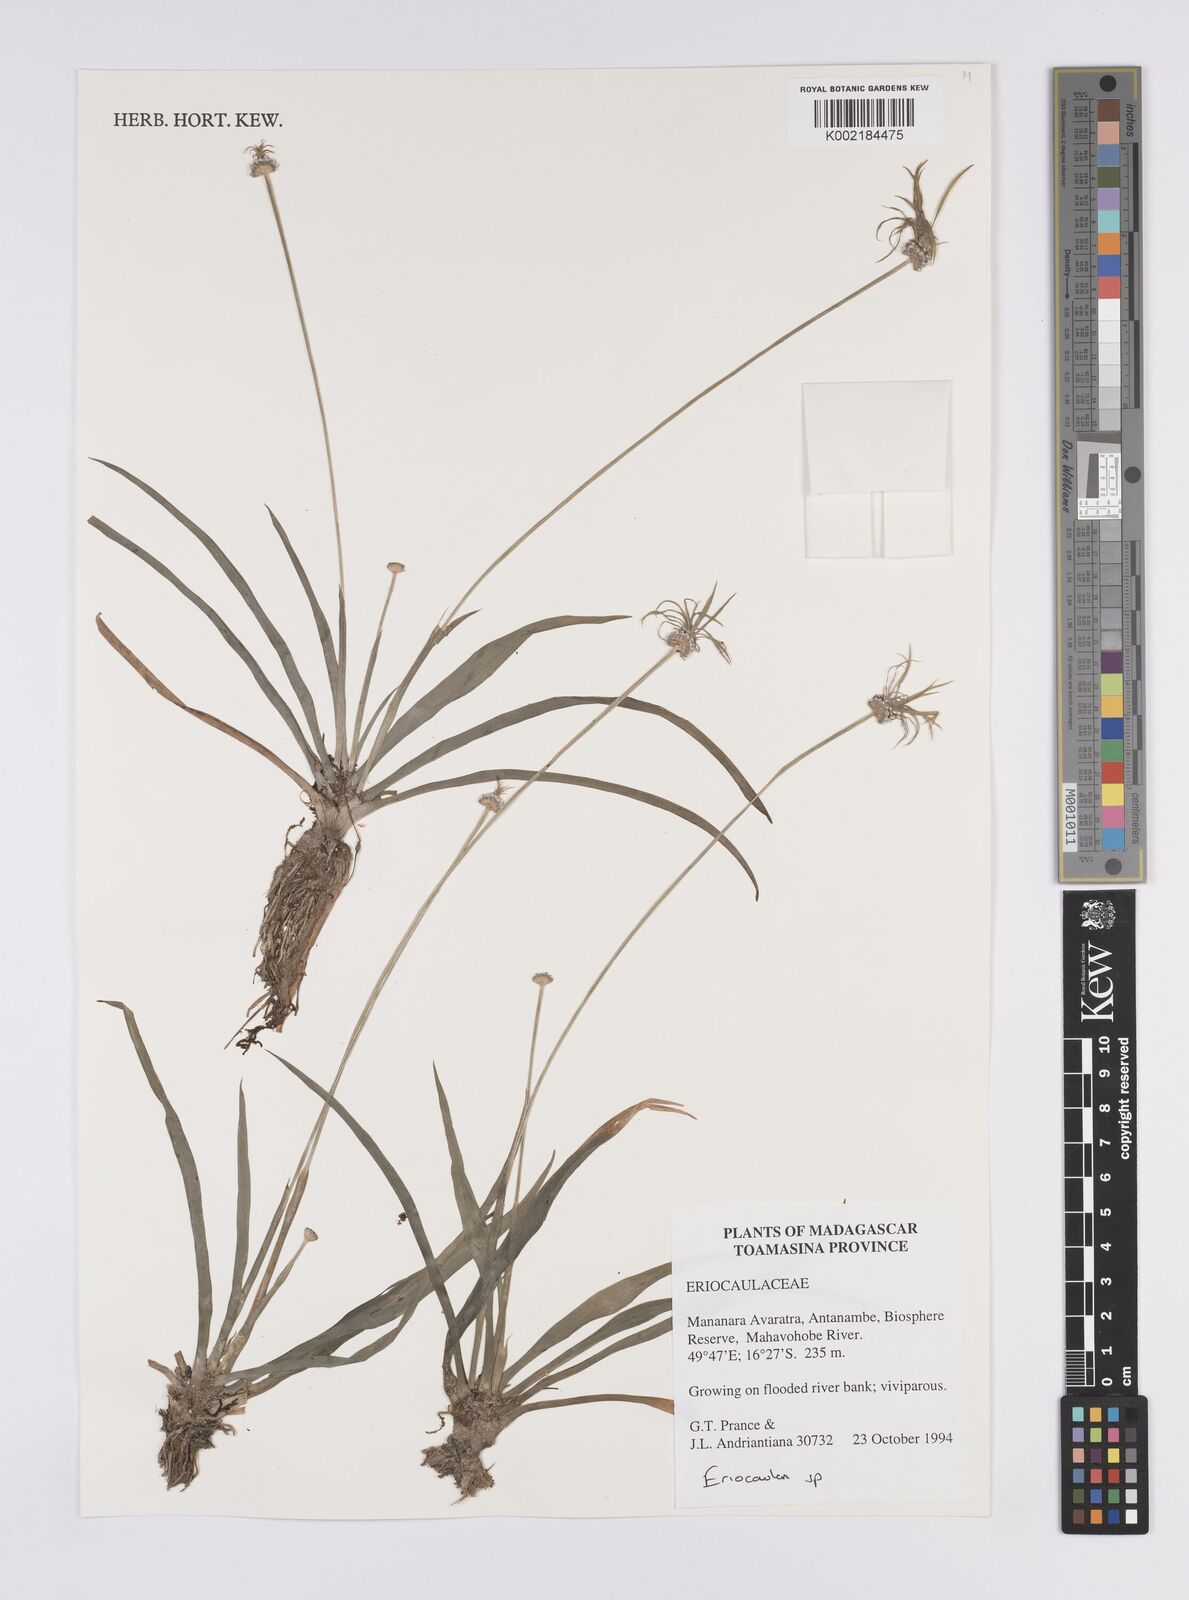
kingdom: Plantae
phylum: Tracheophyta
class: Liliopsida
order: Poales
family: Eriocaulaceae
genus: Eriocaulon
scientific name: Eriocaulon trilobatum
